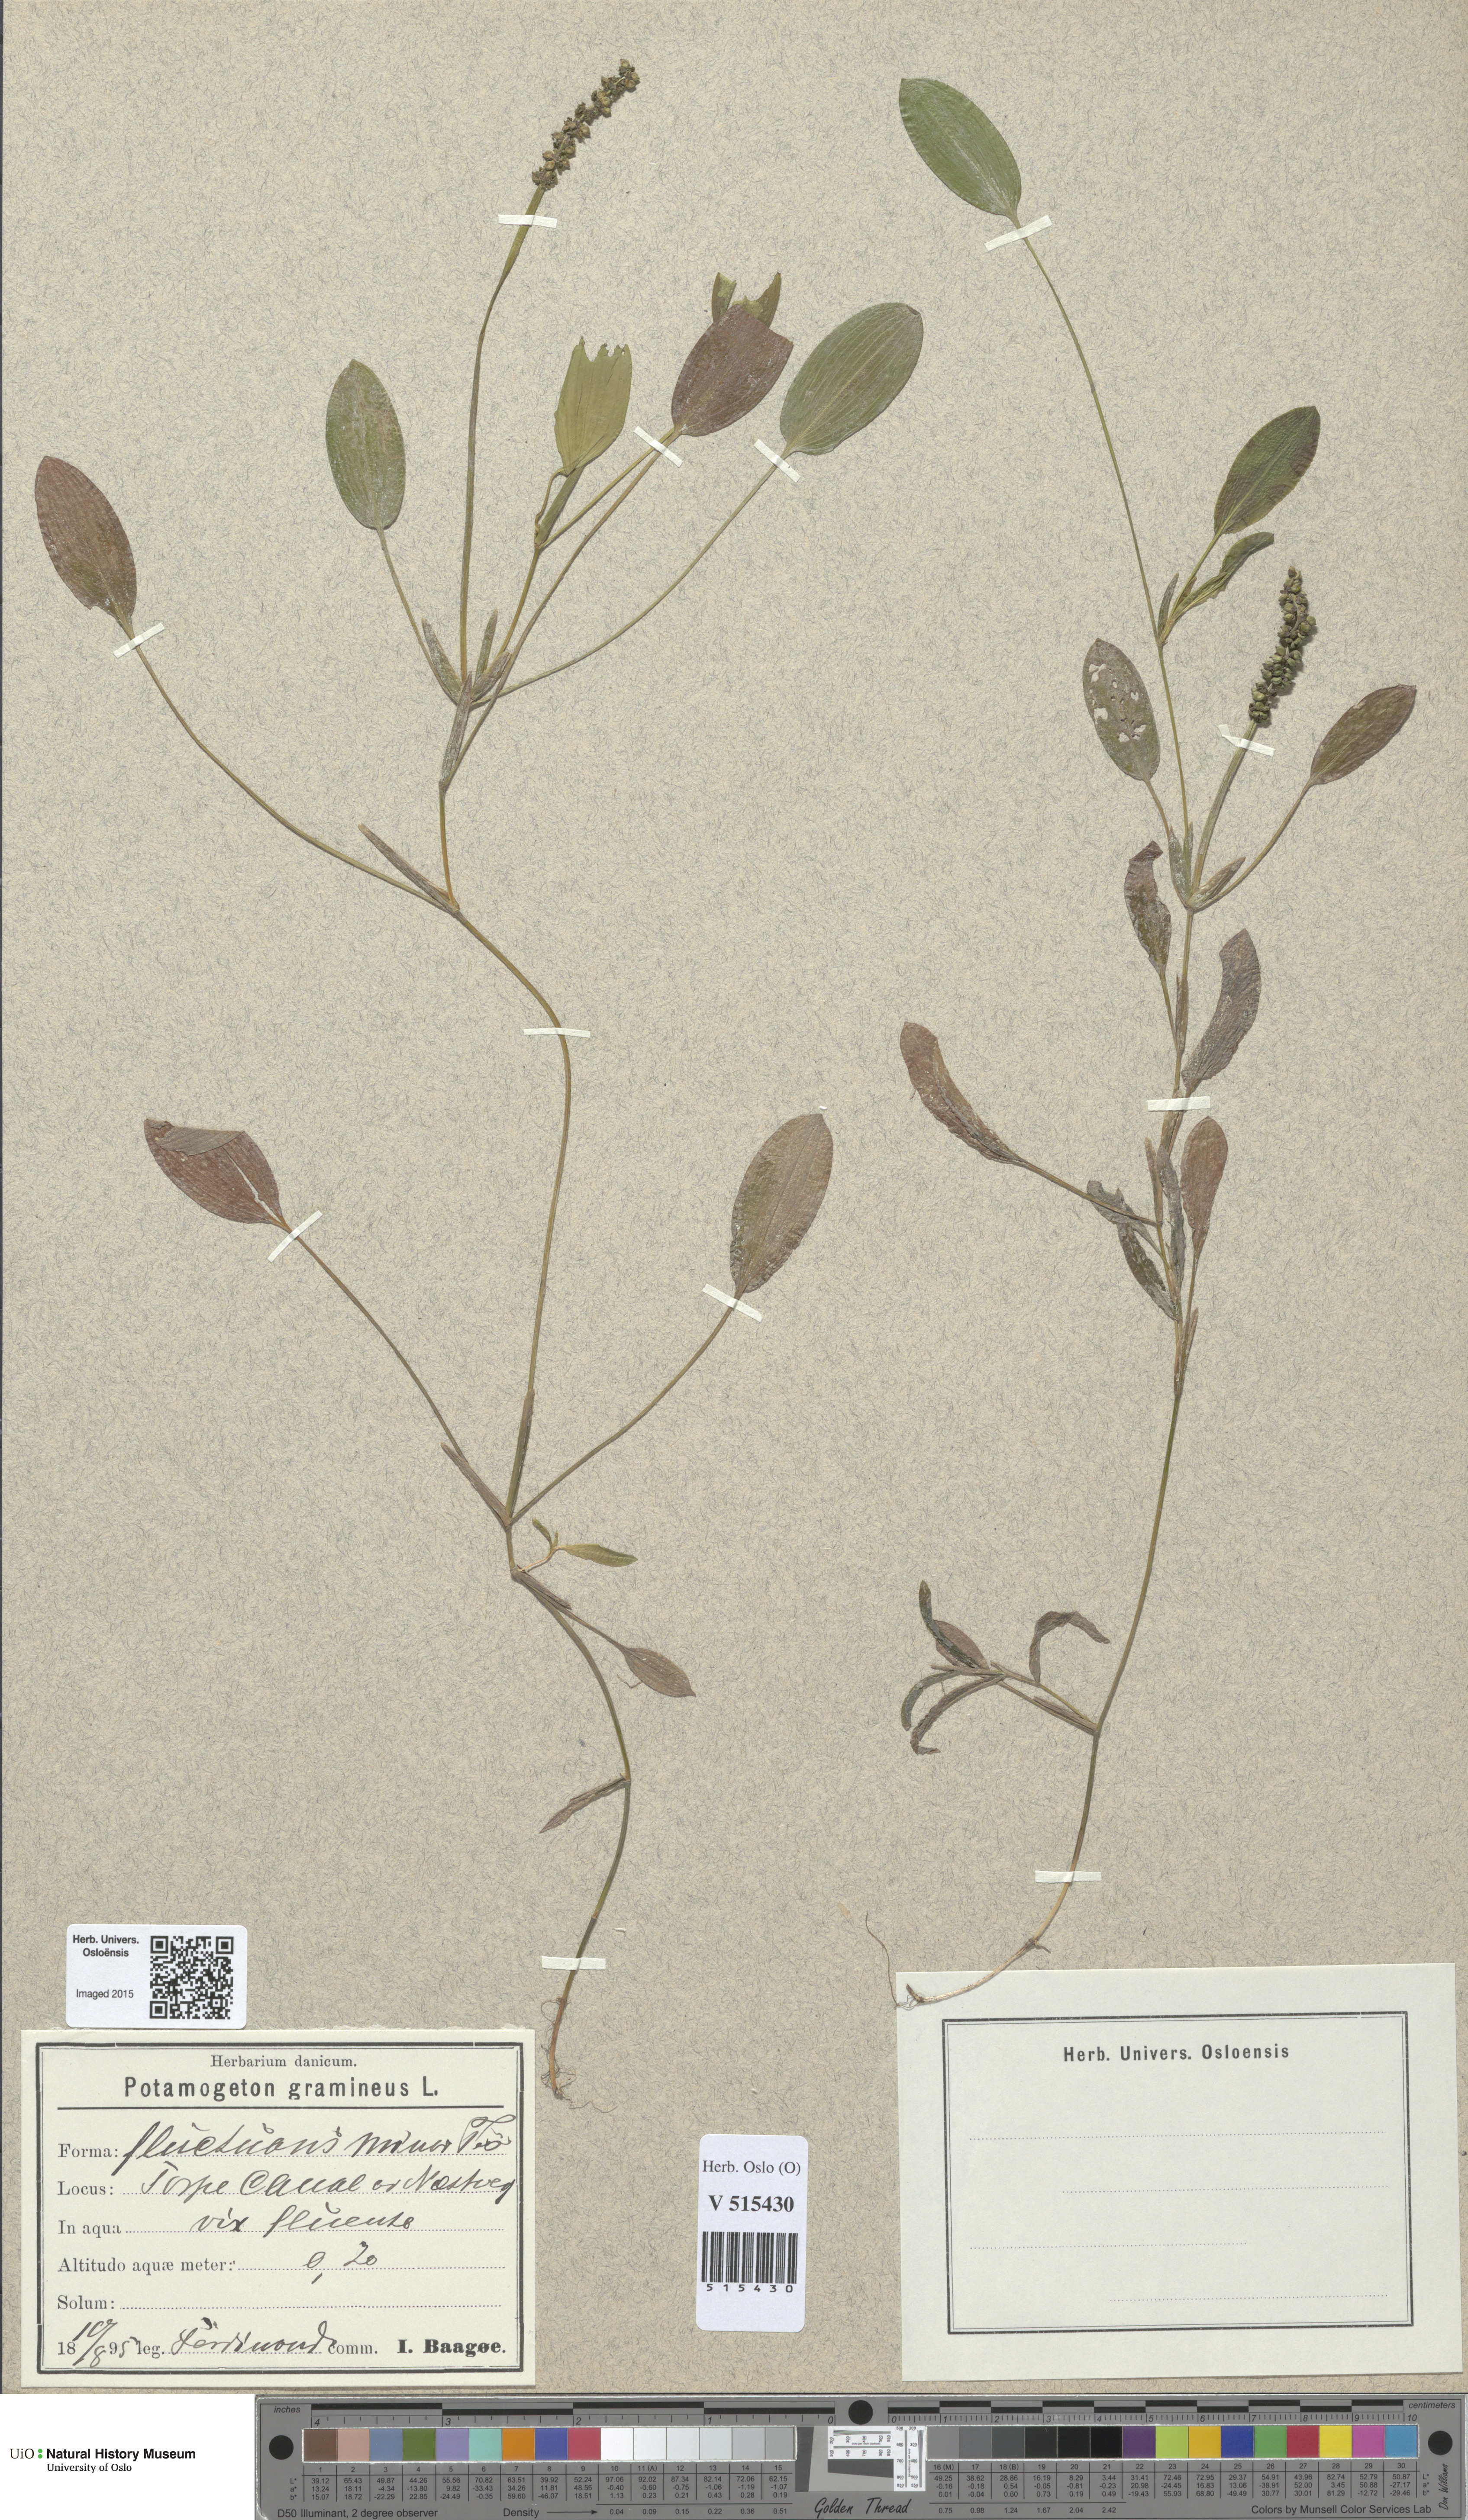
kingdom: Plantae
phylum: Tracheophyta
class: Liliopsida
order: Alismatales
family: Potamogetonaceae
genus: Potamogeton
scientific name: Potamogeton gramineus
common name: Various-leaved pondweed
